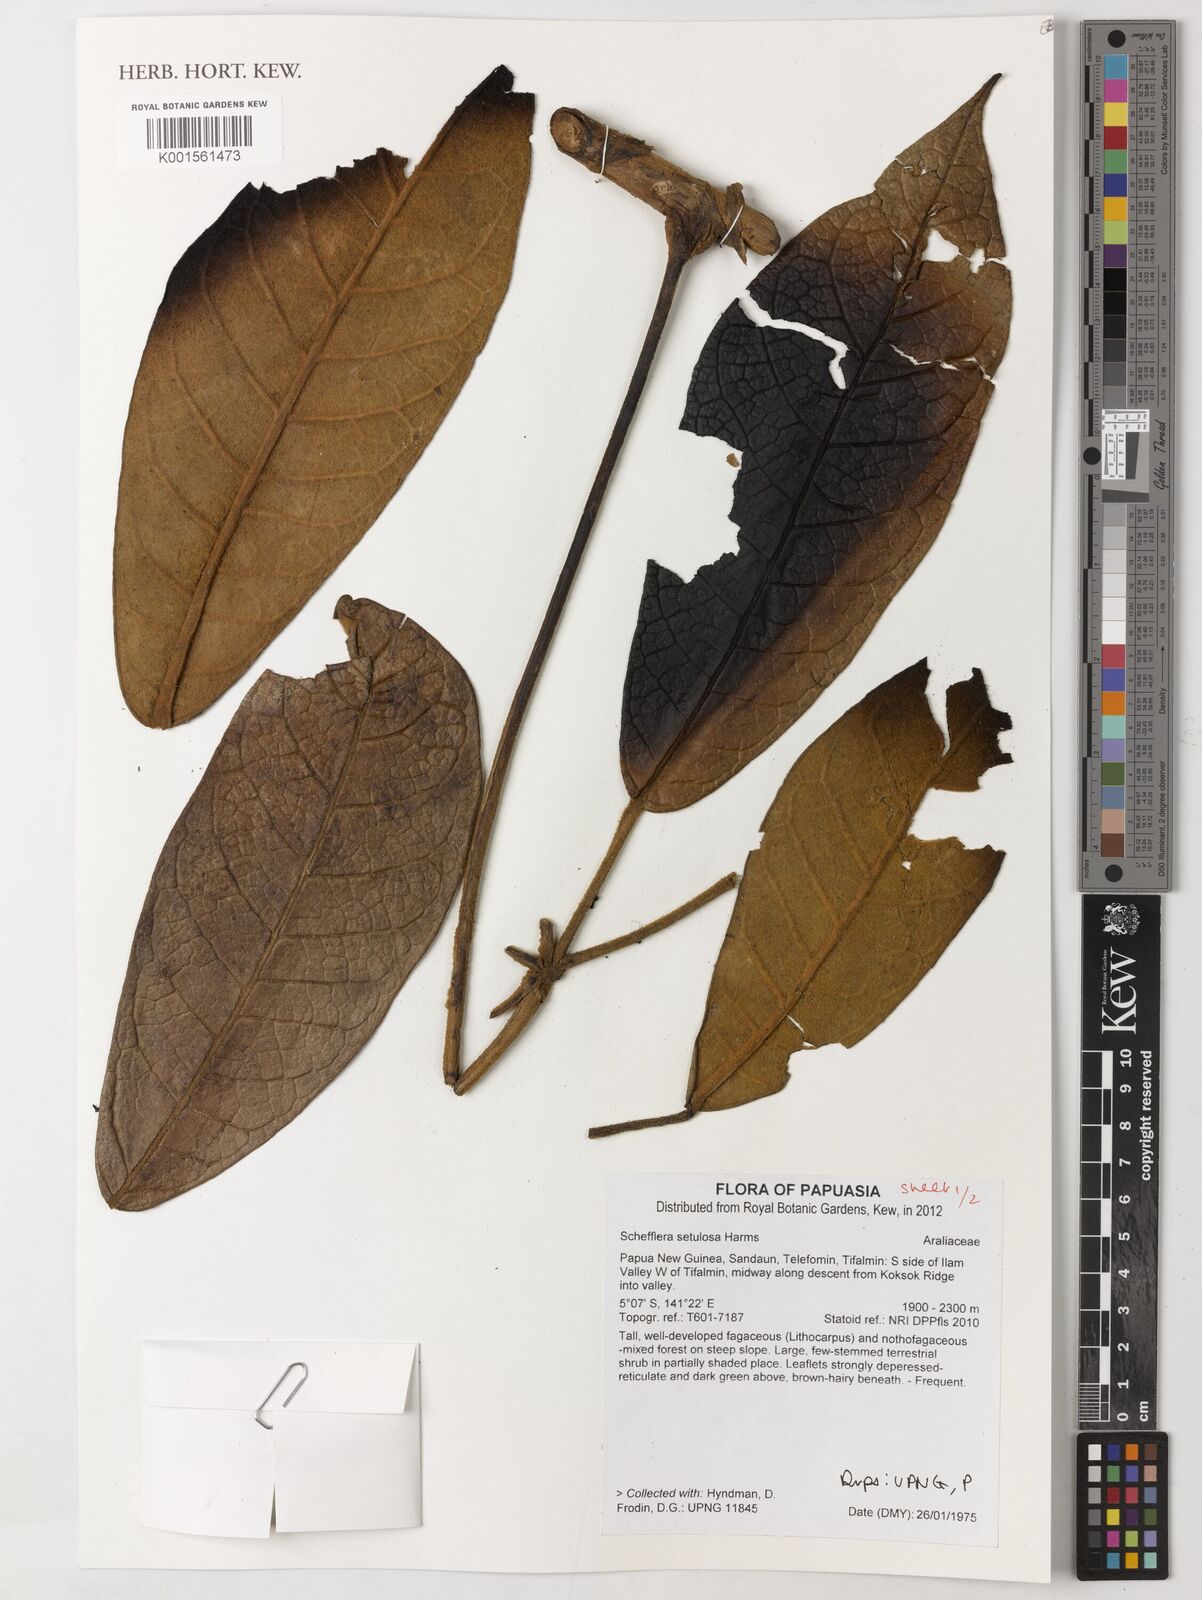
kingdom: Plantae
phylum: Tracheophyta
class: Magnoliopsida
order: Apiales
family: Araliaceae
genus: Heptapleurum
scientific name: Heptapleurum setulosum
